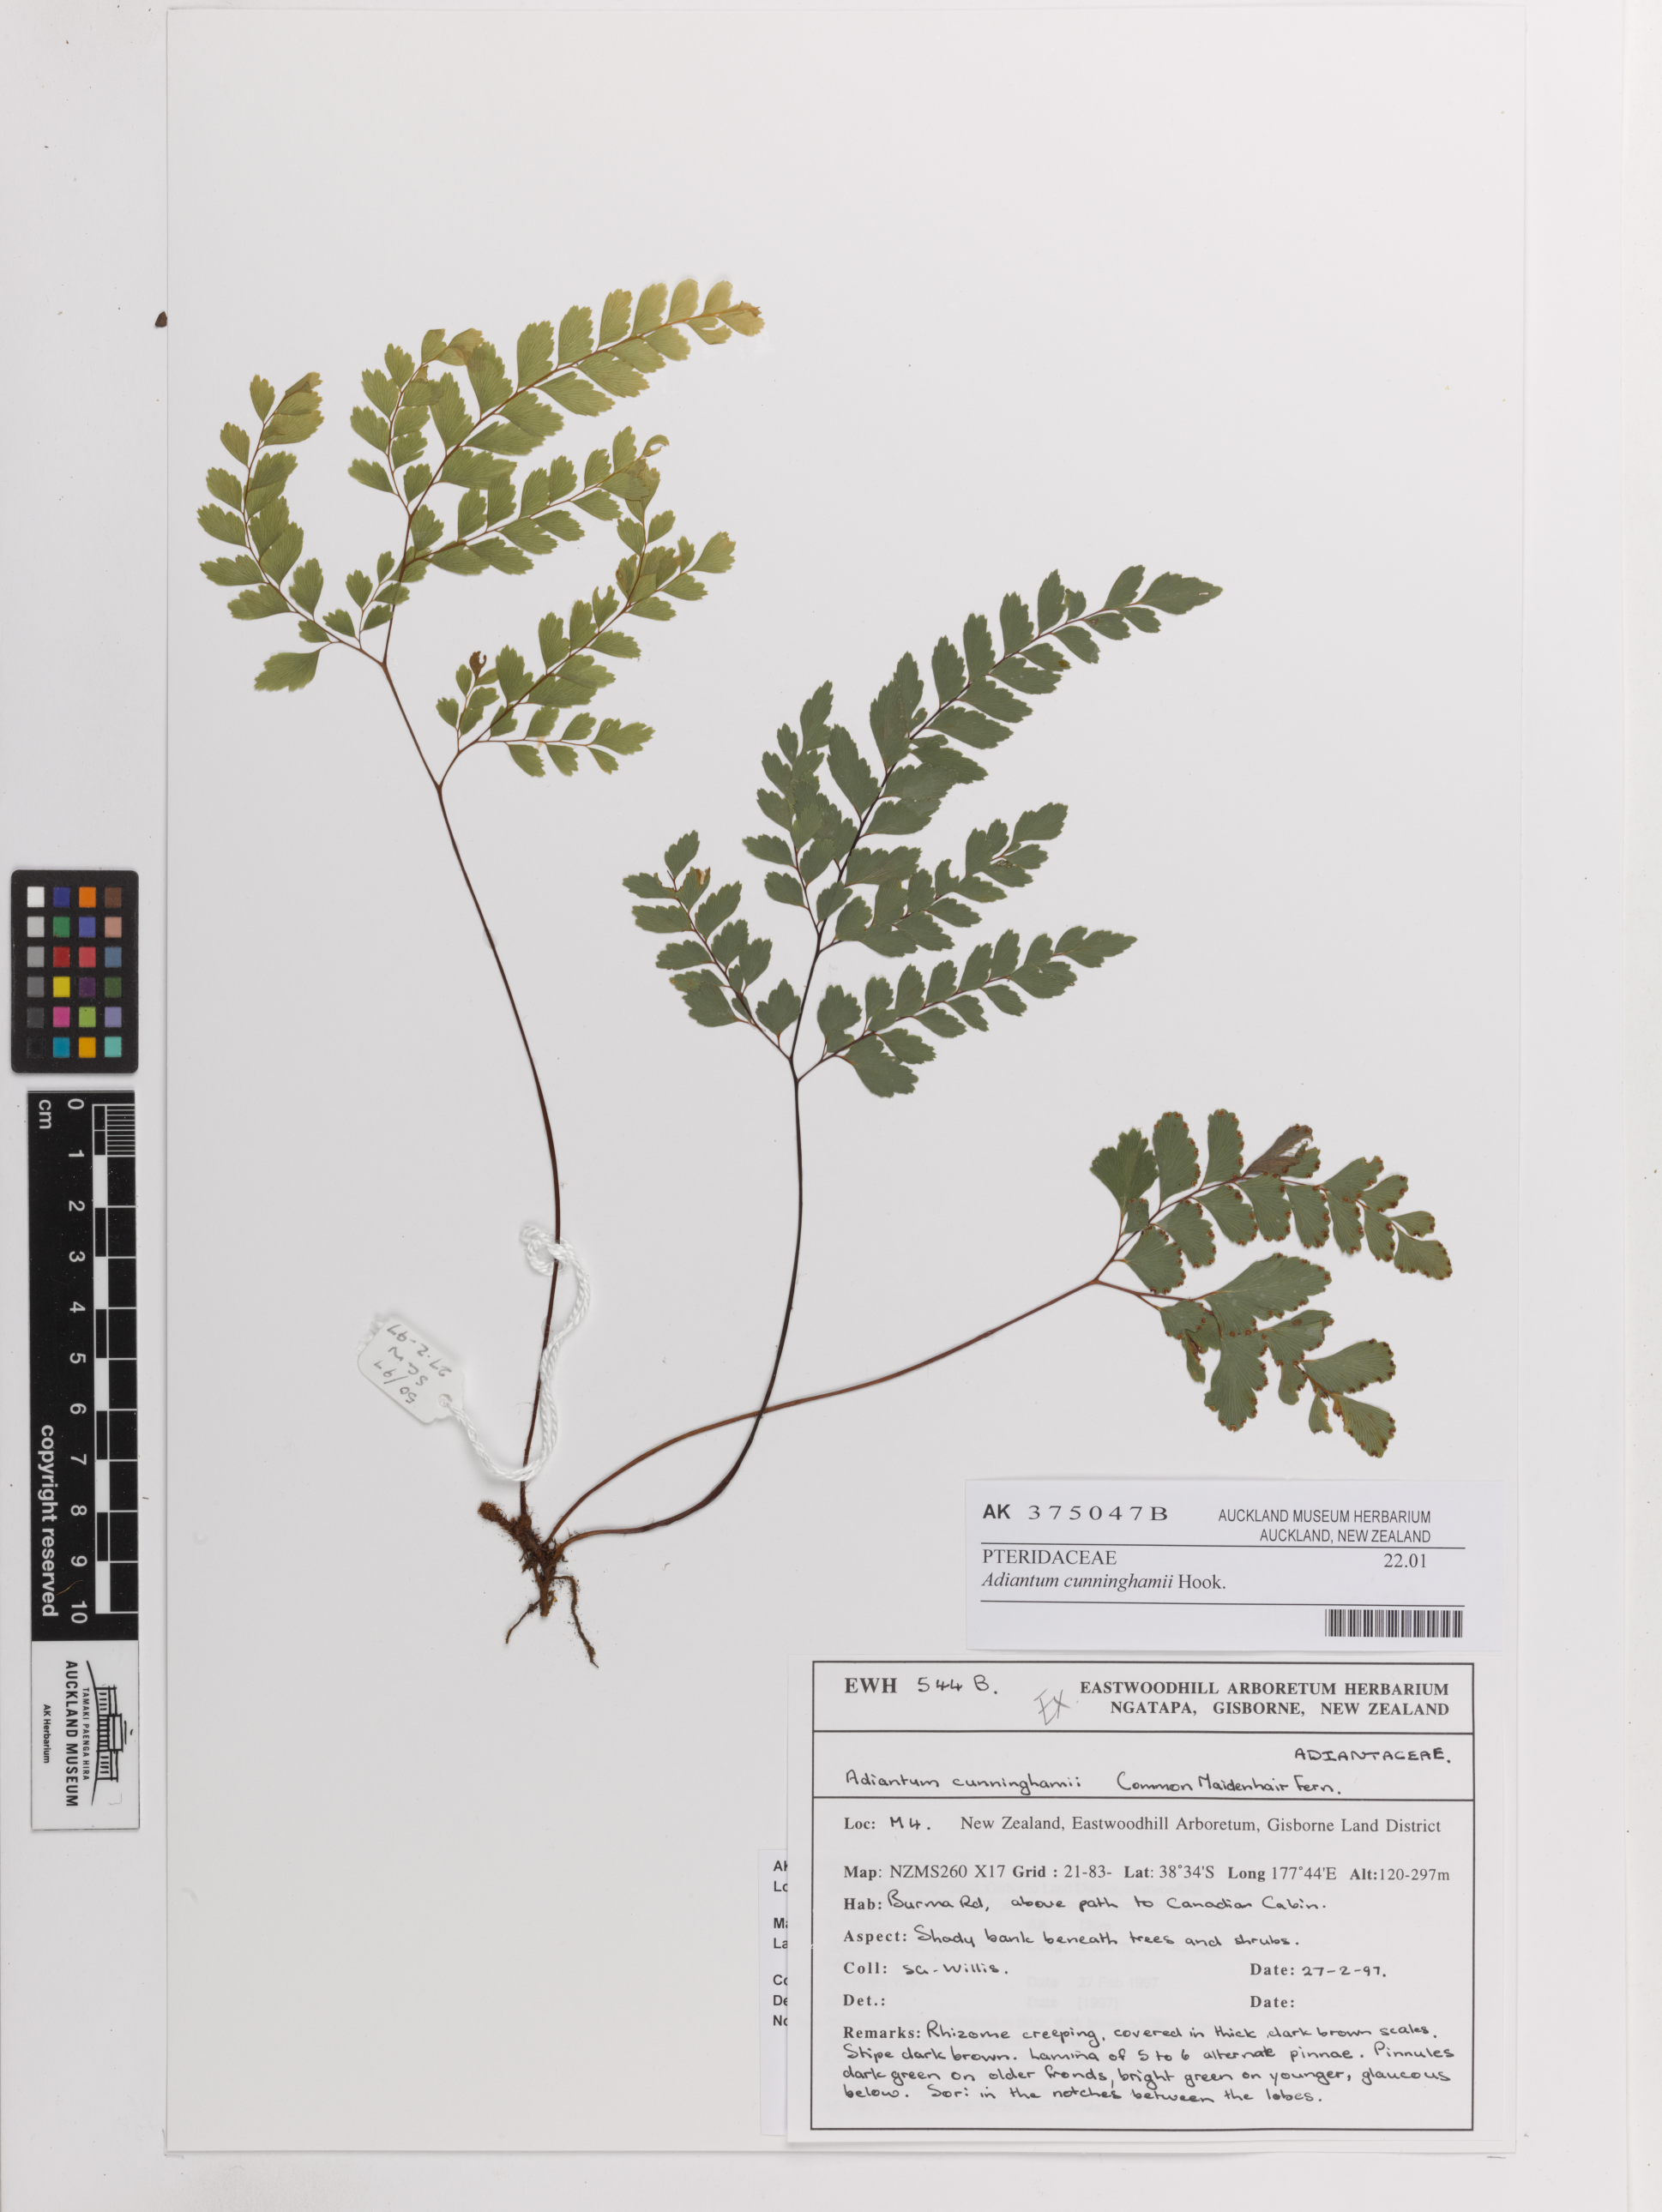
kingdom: Plantae
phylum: Tracheophyta
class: Polypodiopsida
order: Polypodiales
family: Pteridaceae
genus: Adiantum
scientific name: Adiantum cunninghamii
